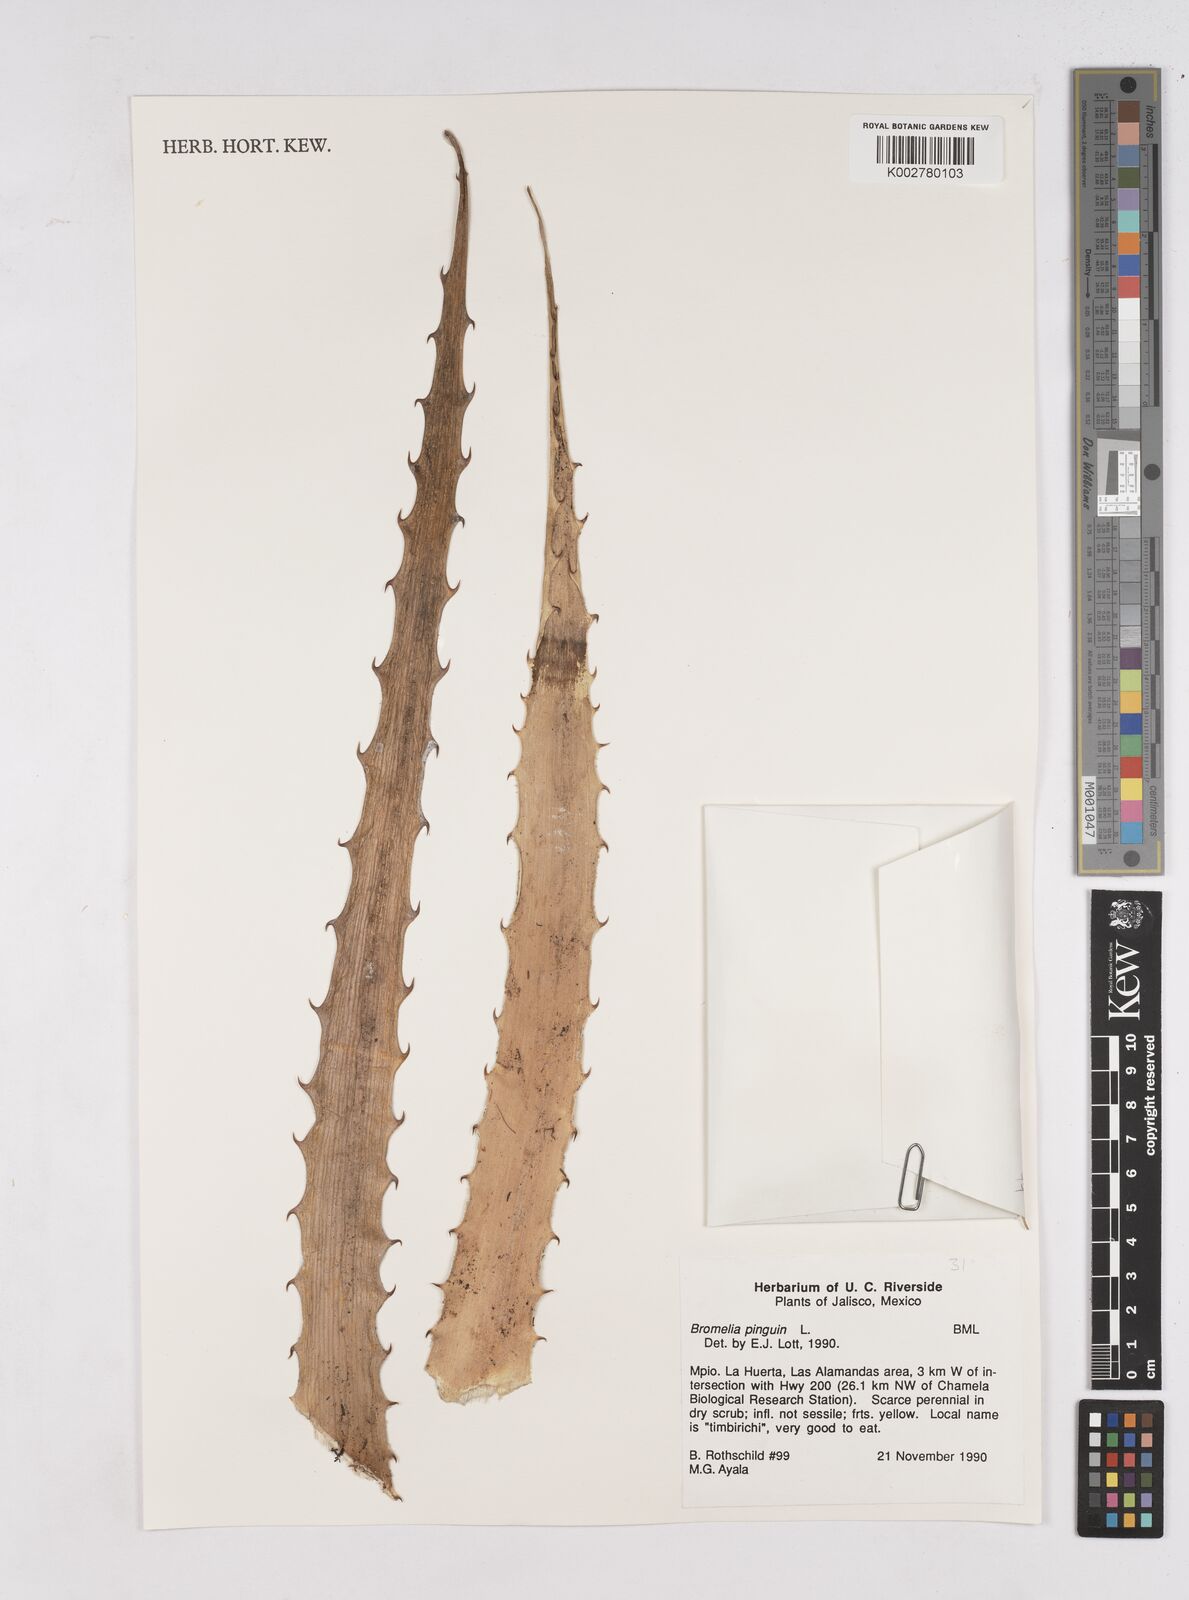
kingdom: Plantae
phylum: Tracheophyta
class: Liliopsida
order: Poales
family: Bromeliaceae
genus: Bromelia
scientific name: Bromelia pinguin
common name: Pinguin
